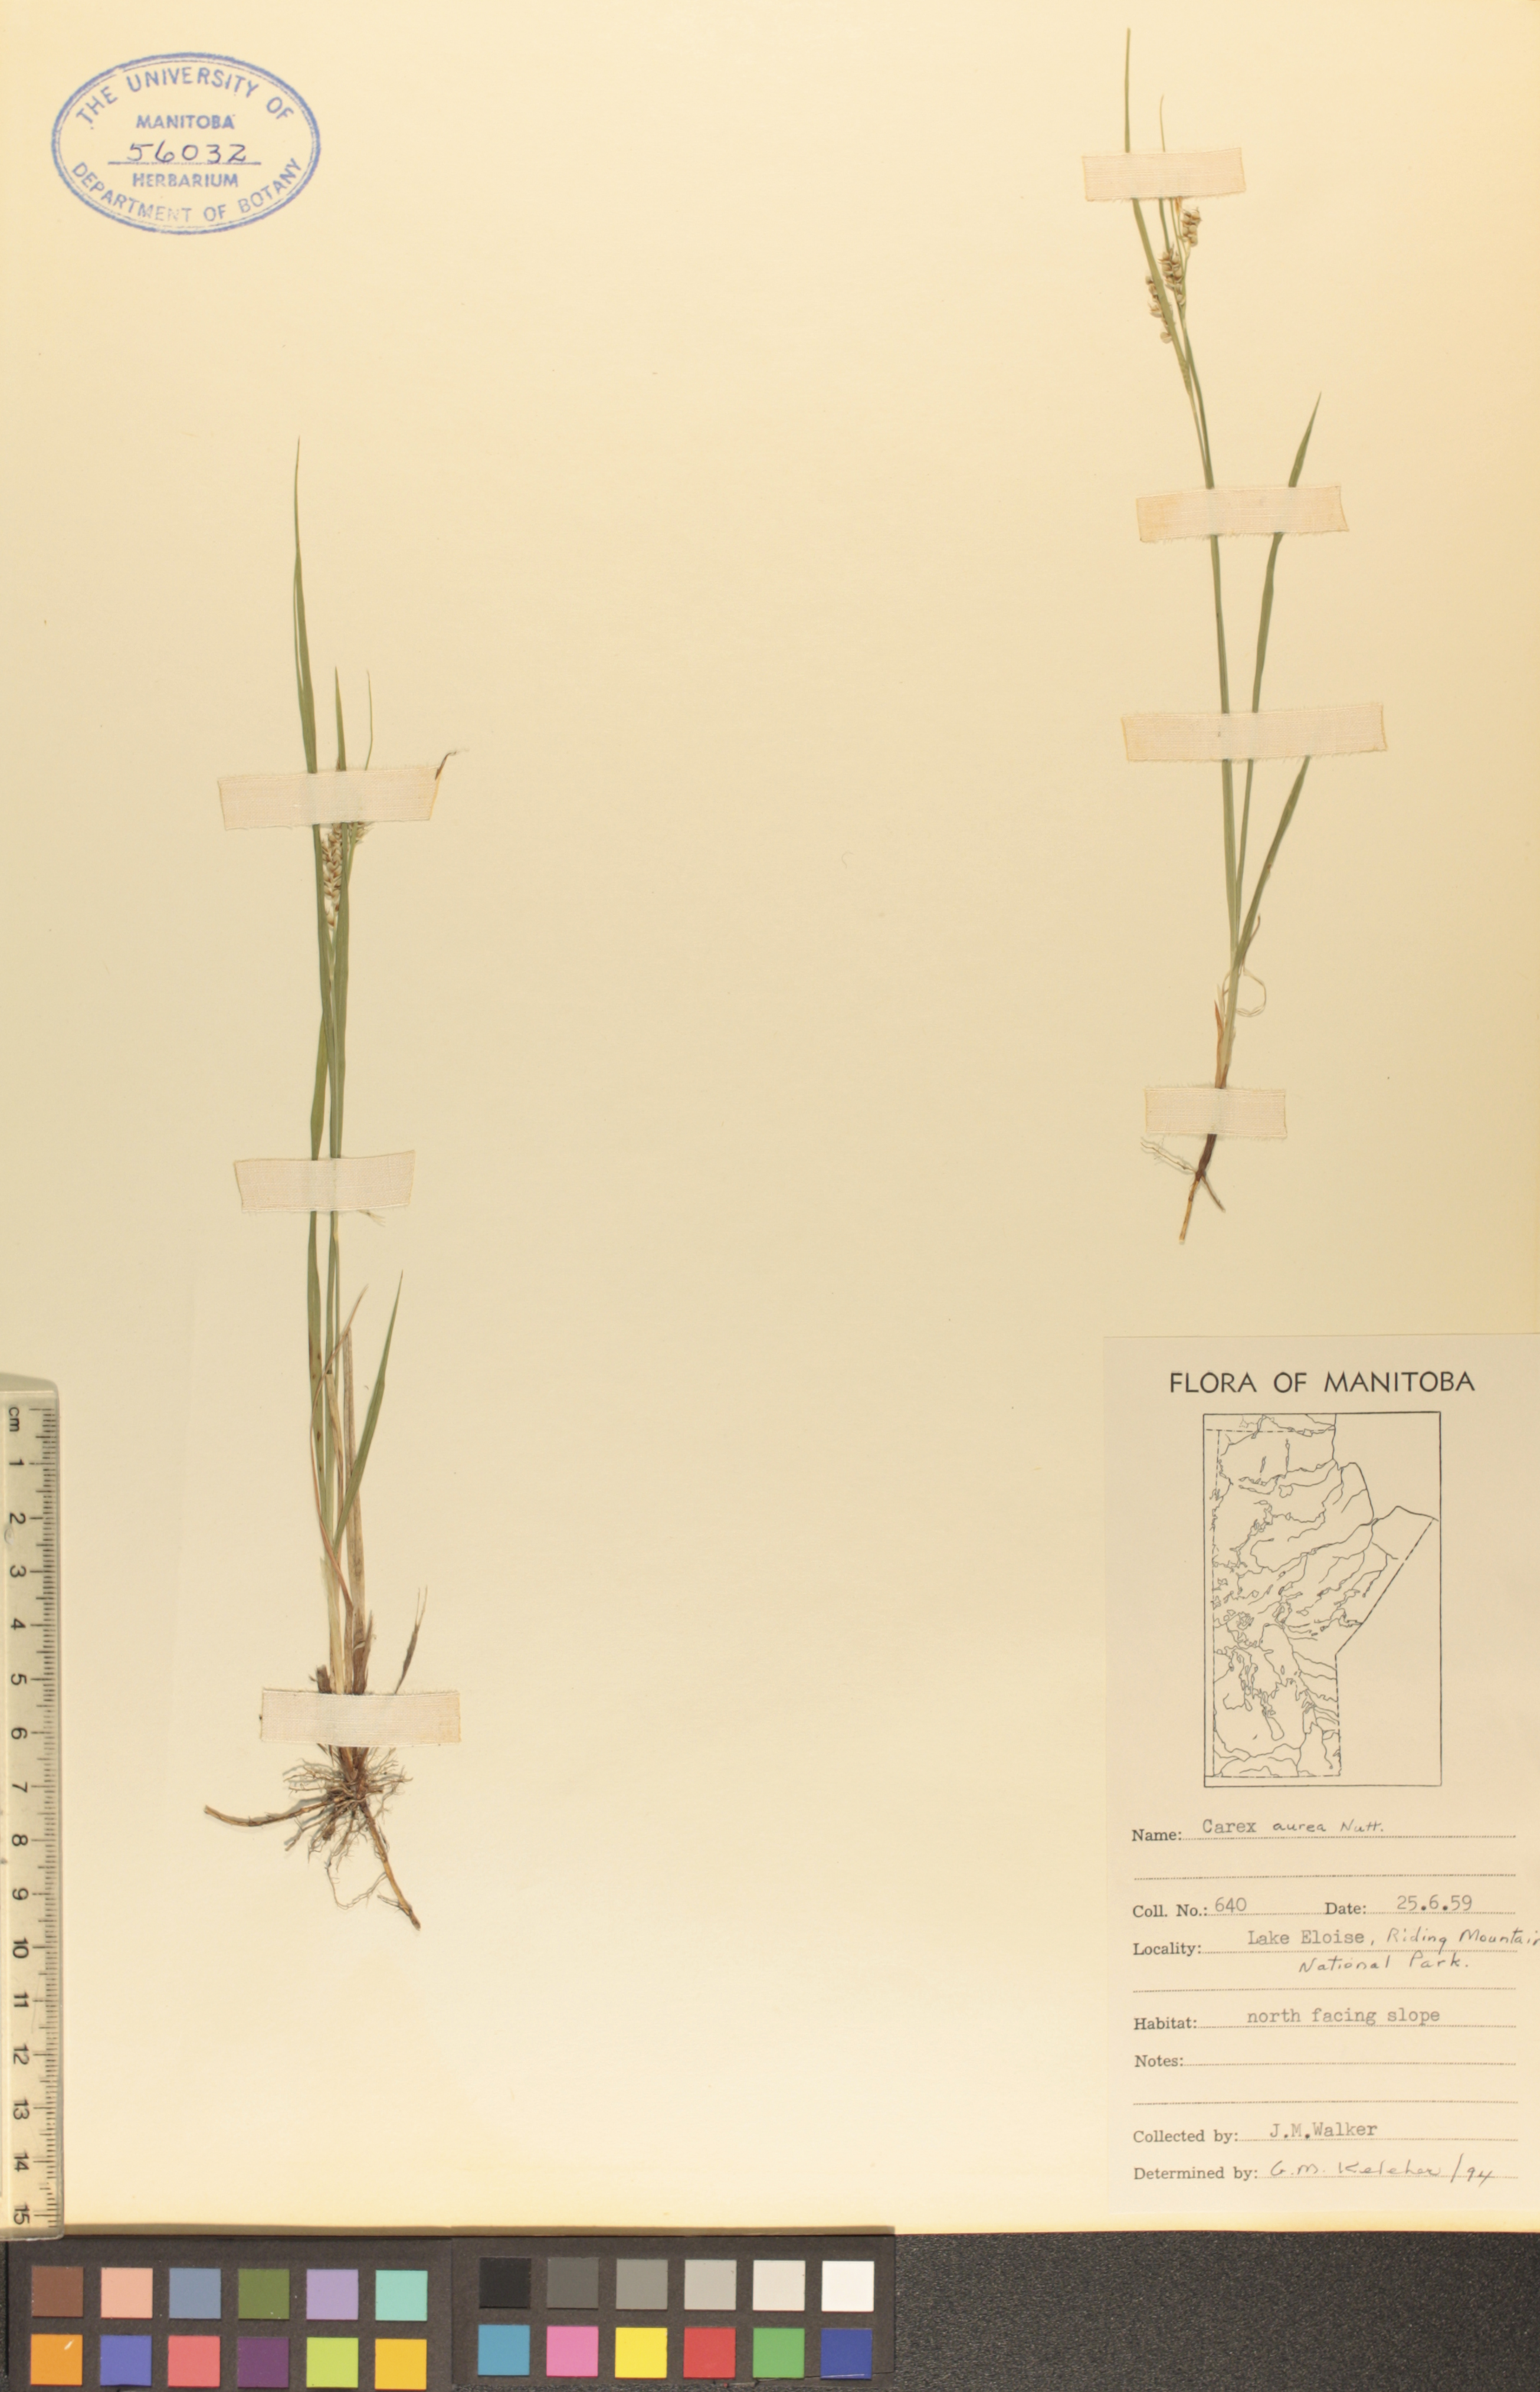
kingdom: Plantae
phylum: Tracheophyta
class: Liliopsida
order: Poales
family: Cyperaceae
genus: Carex
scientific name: Carex aurea
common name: Golden sedge
